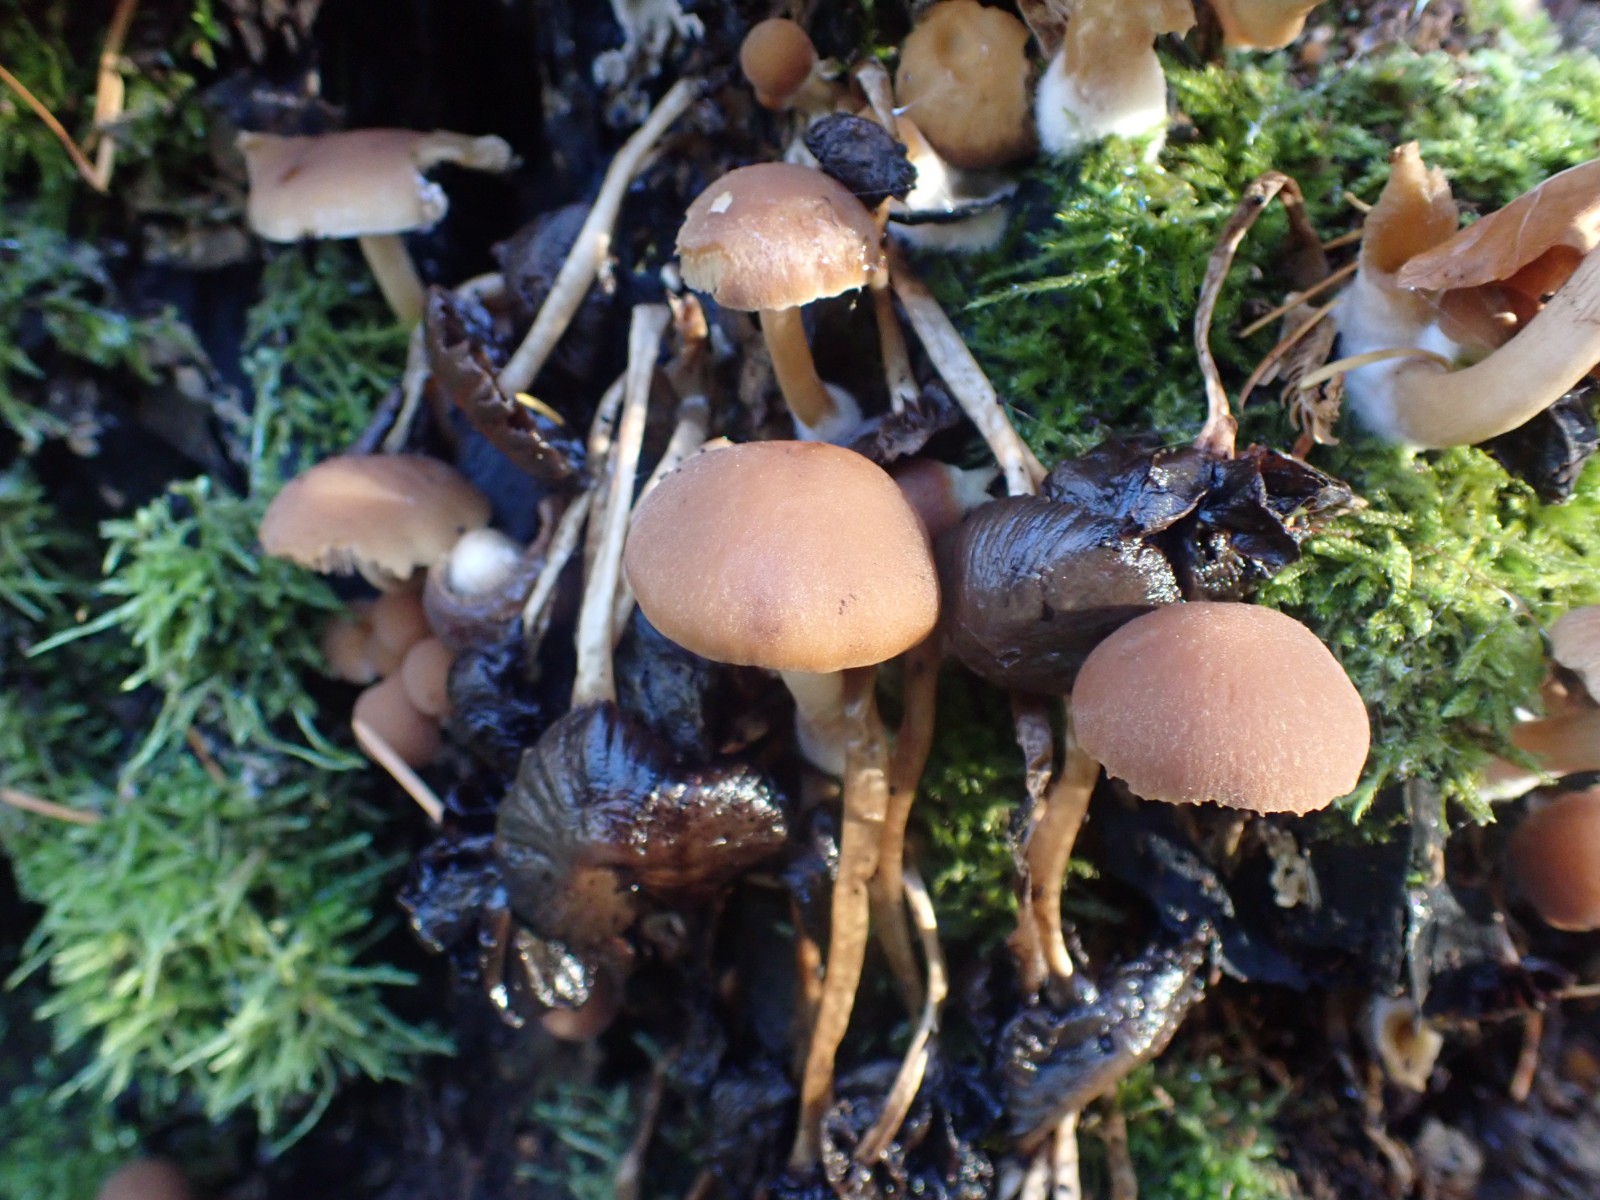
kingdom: Fungi
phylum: Basidiomycota
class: Agaricomycetes
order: Agaricales
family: Psathyrellaceae
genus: Psathyrella
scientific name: Psathyrella piluliformis
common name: lysstokket mørkhat
